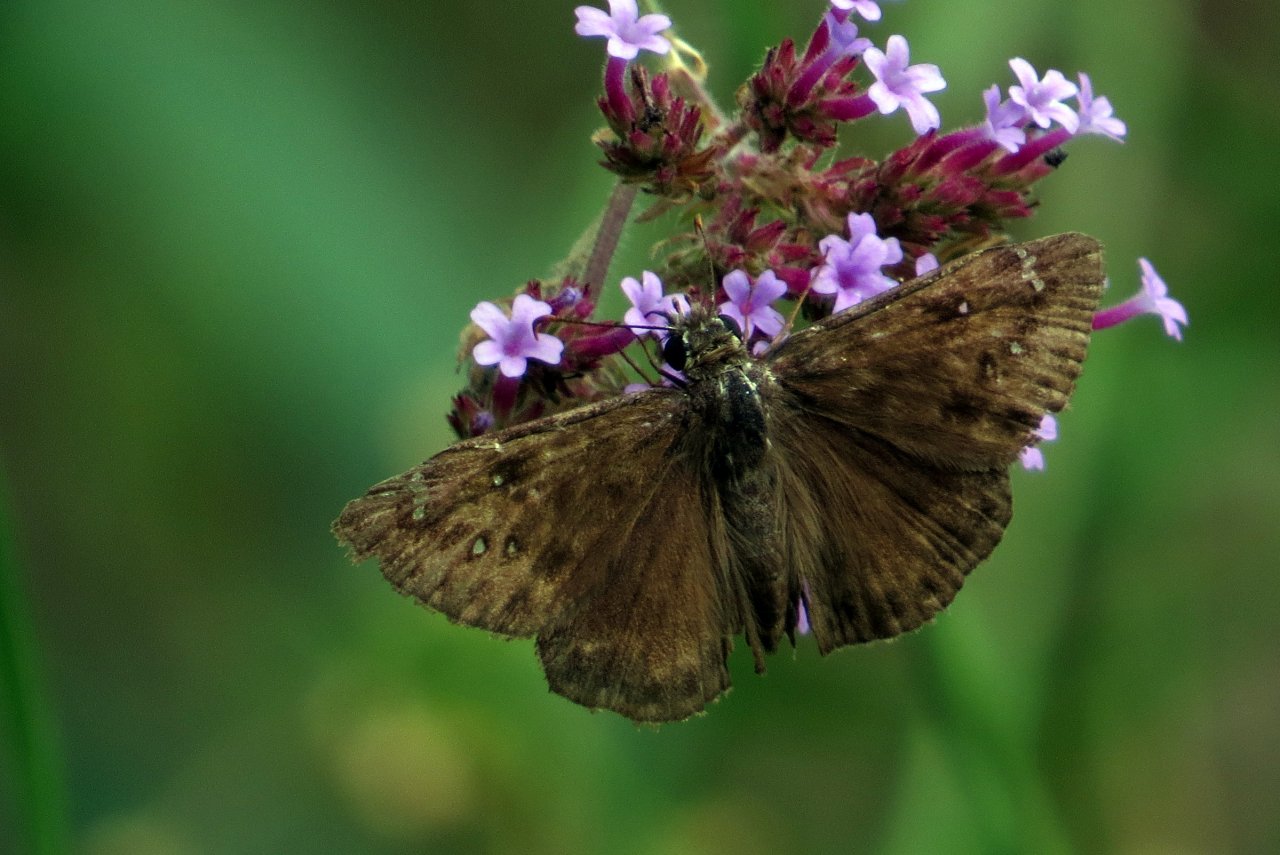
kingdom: Animalia
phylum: Arthropoda
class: Insecta
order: Lepidoptera
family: Hesperiidae
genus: Gesta
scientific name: Gesta
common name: Horace's Duskywing
